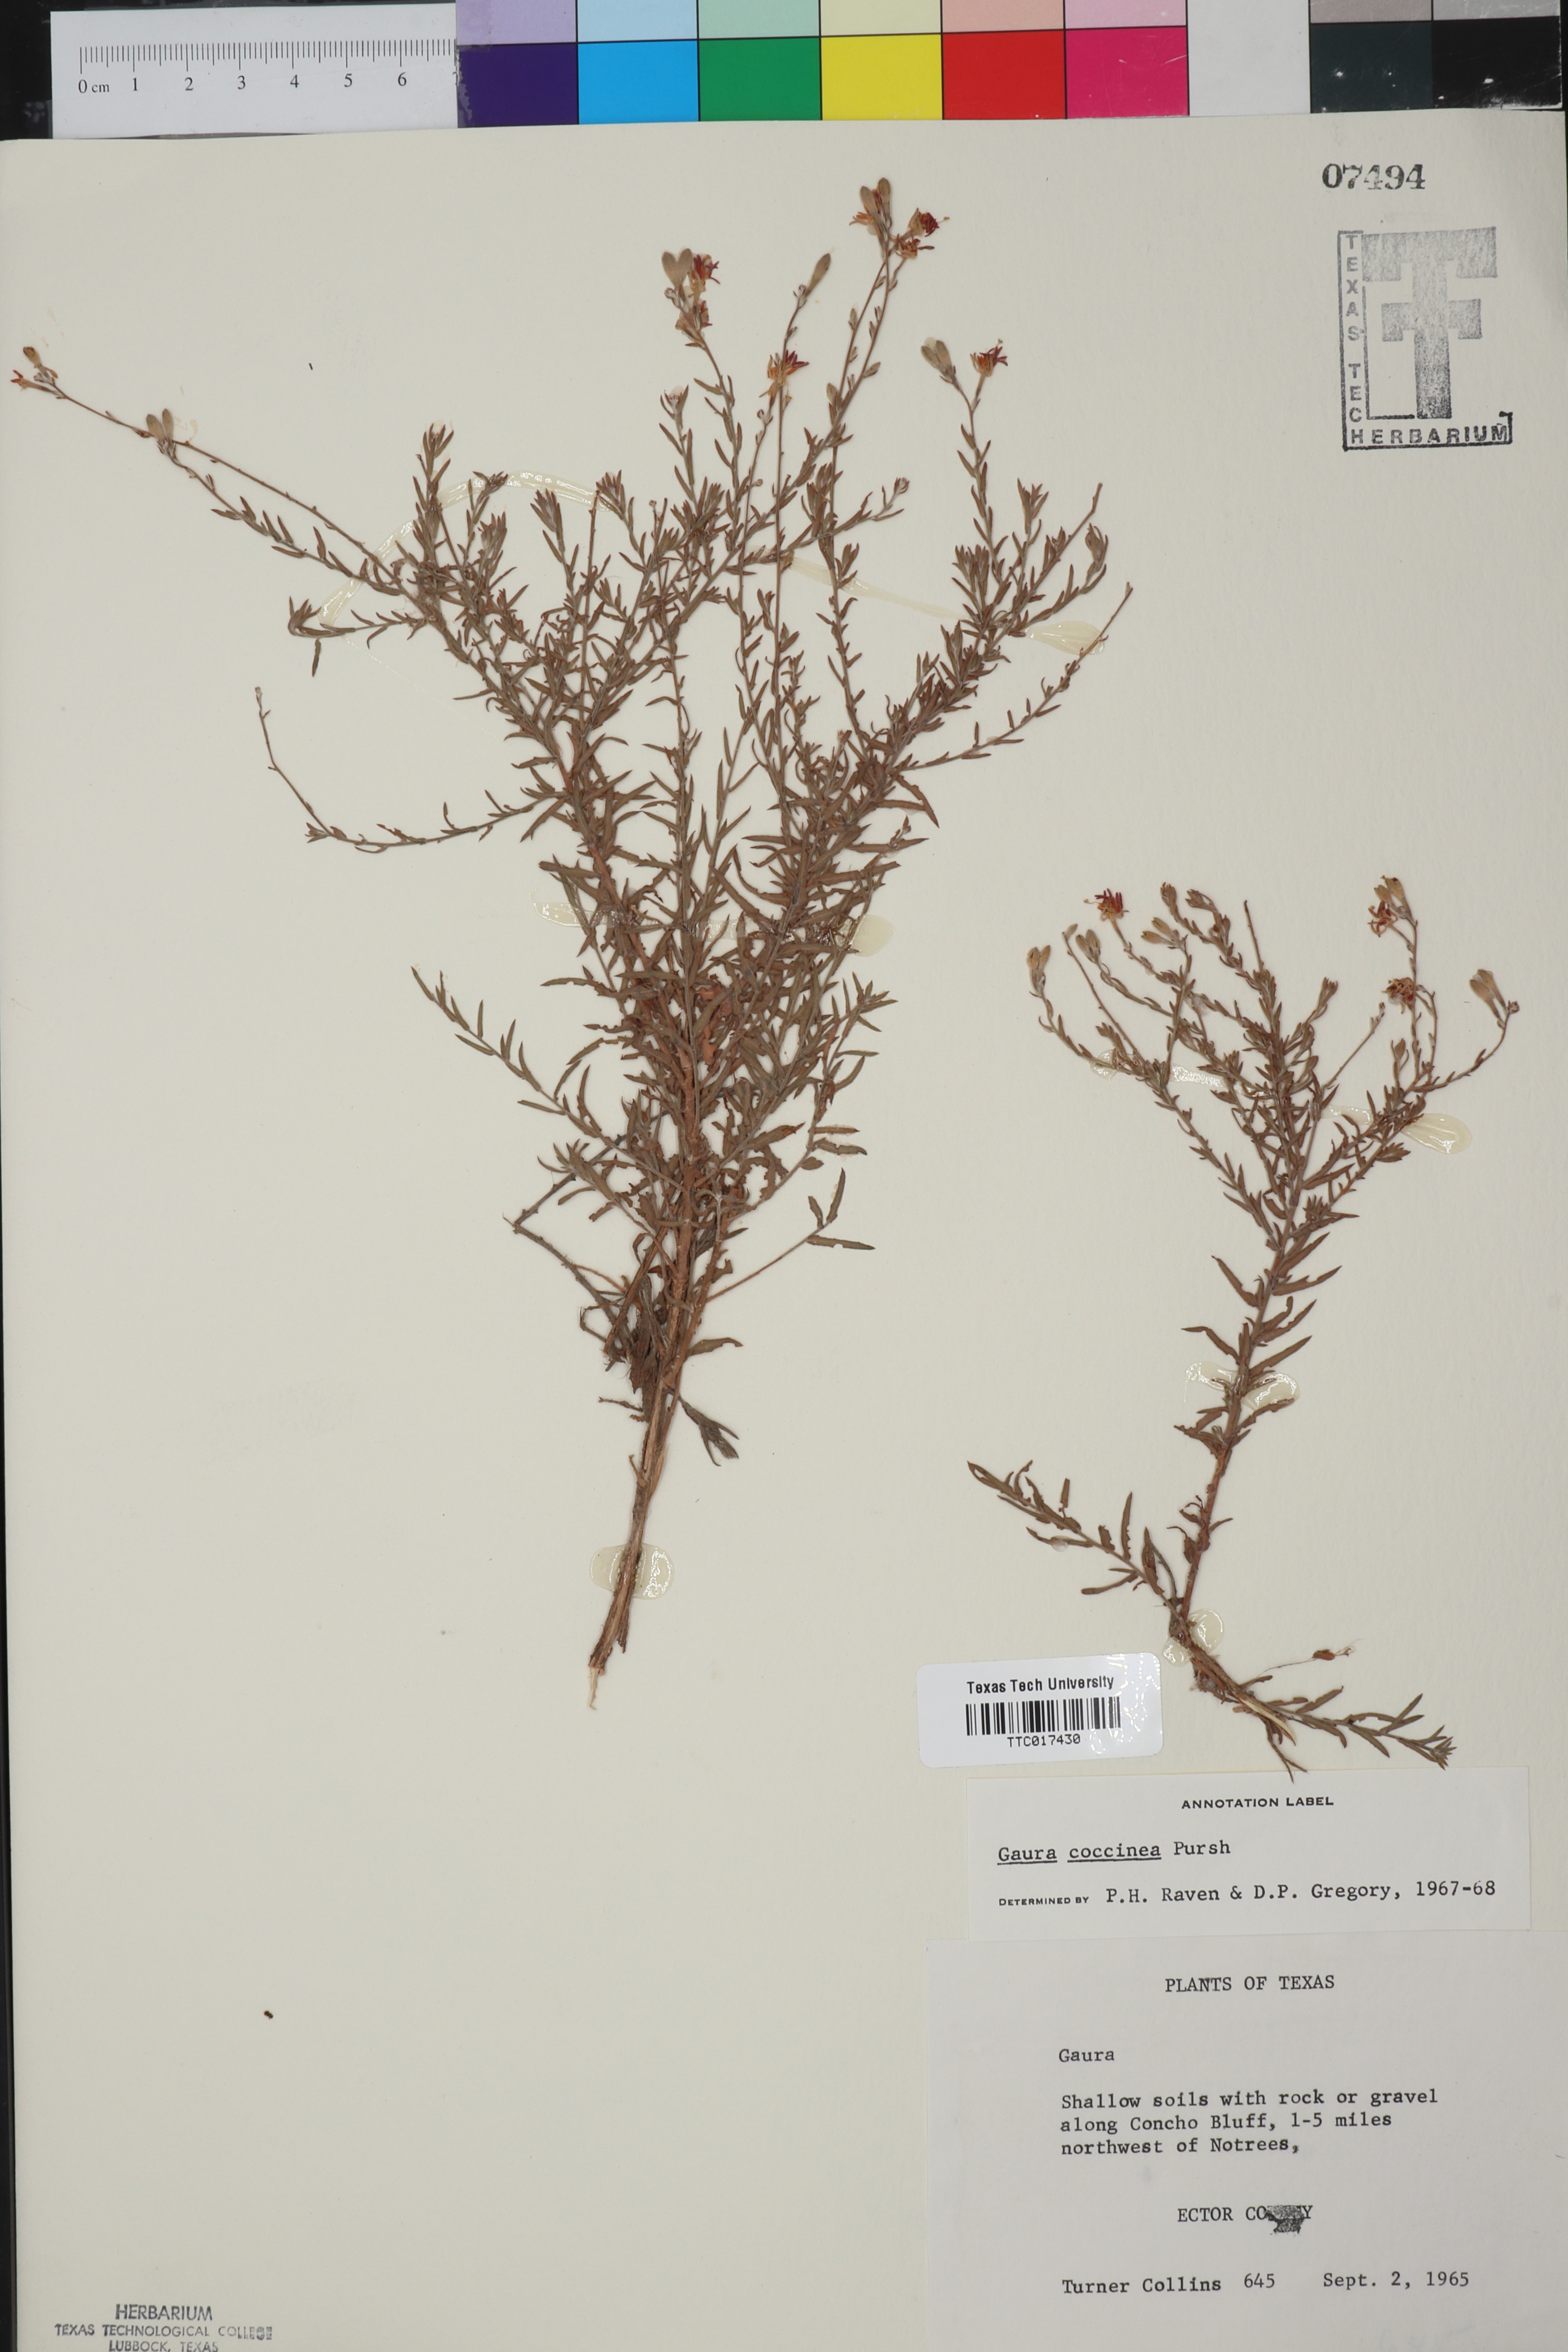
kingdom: Plantae
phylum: Tracheophyta
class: Magnoliopsida
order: Myrtales
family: Onagraceae
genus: Oenothera
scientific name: Oenothera suffrutescens
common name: Scarlet beeblossom
